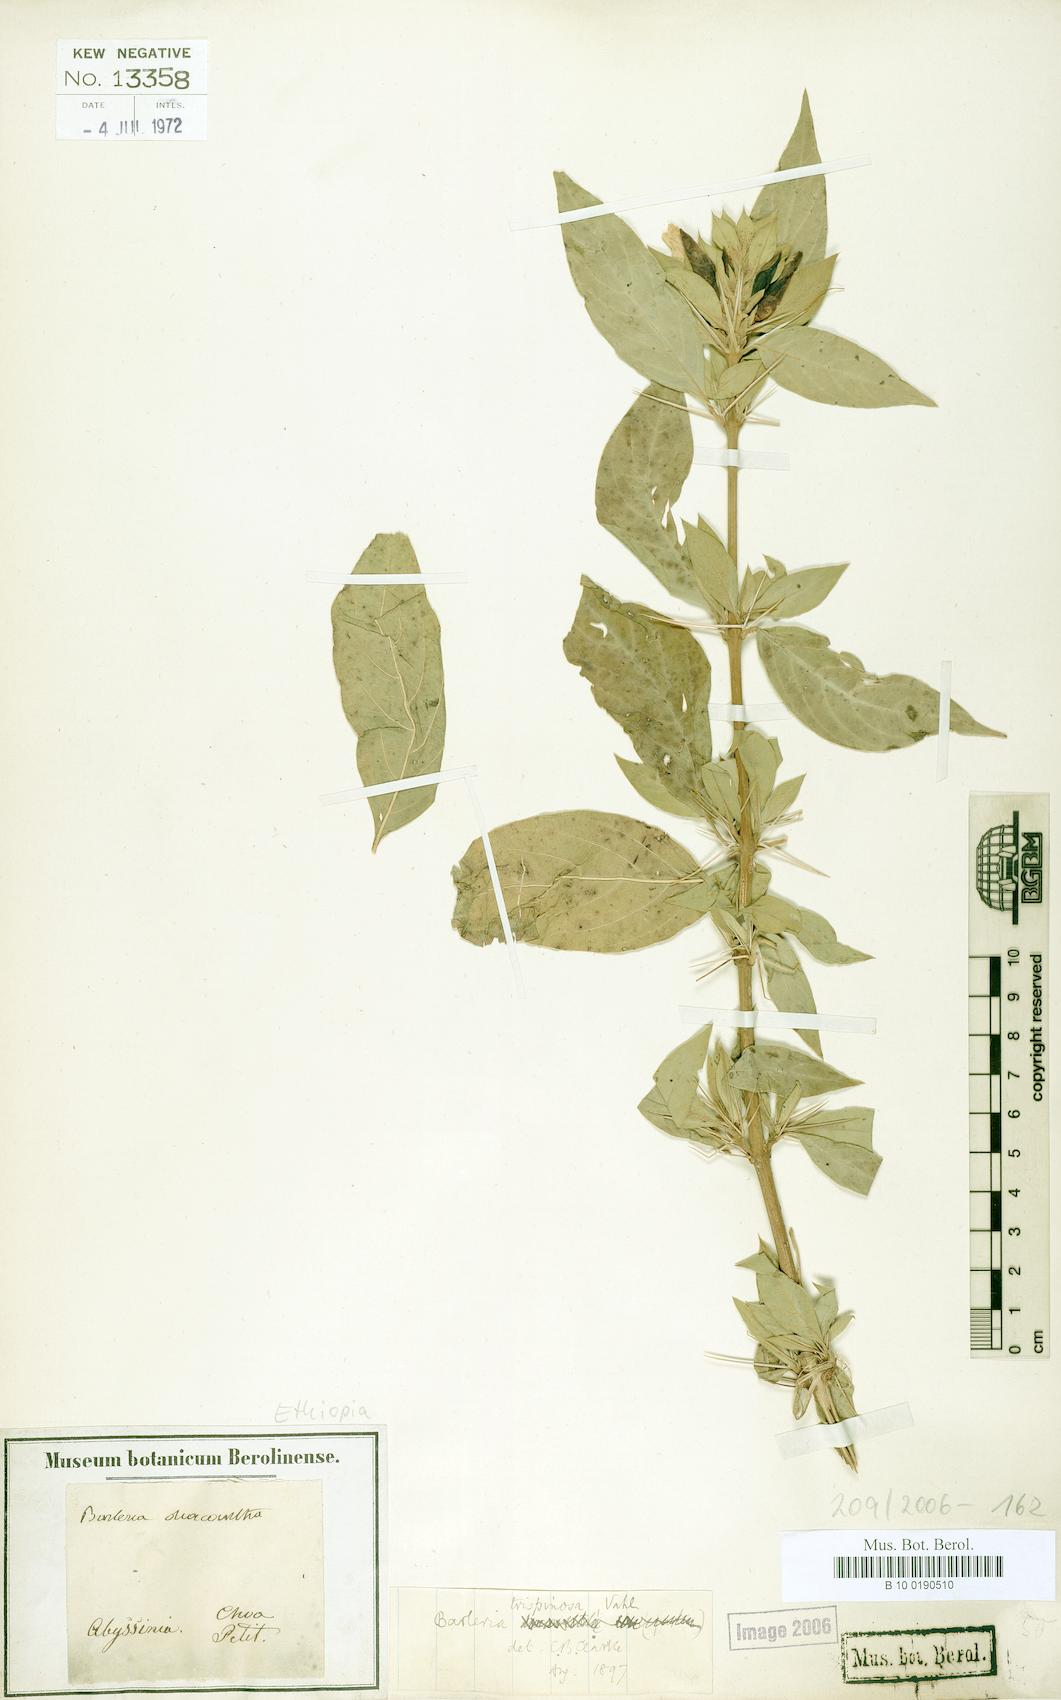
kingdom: Plantae
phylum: Tracheophyta
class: Magnoliopsida
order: Lamiales
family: Acanthaceae
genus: Barleria
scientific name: Barleria trispinosa
